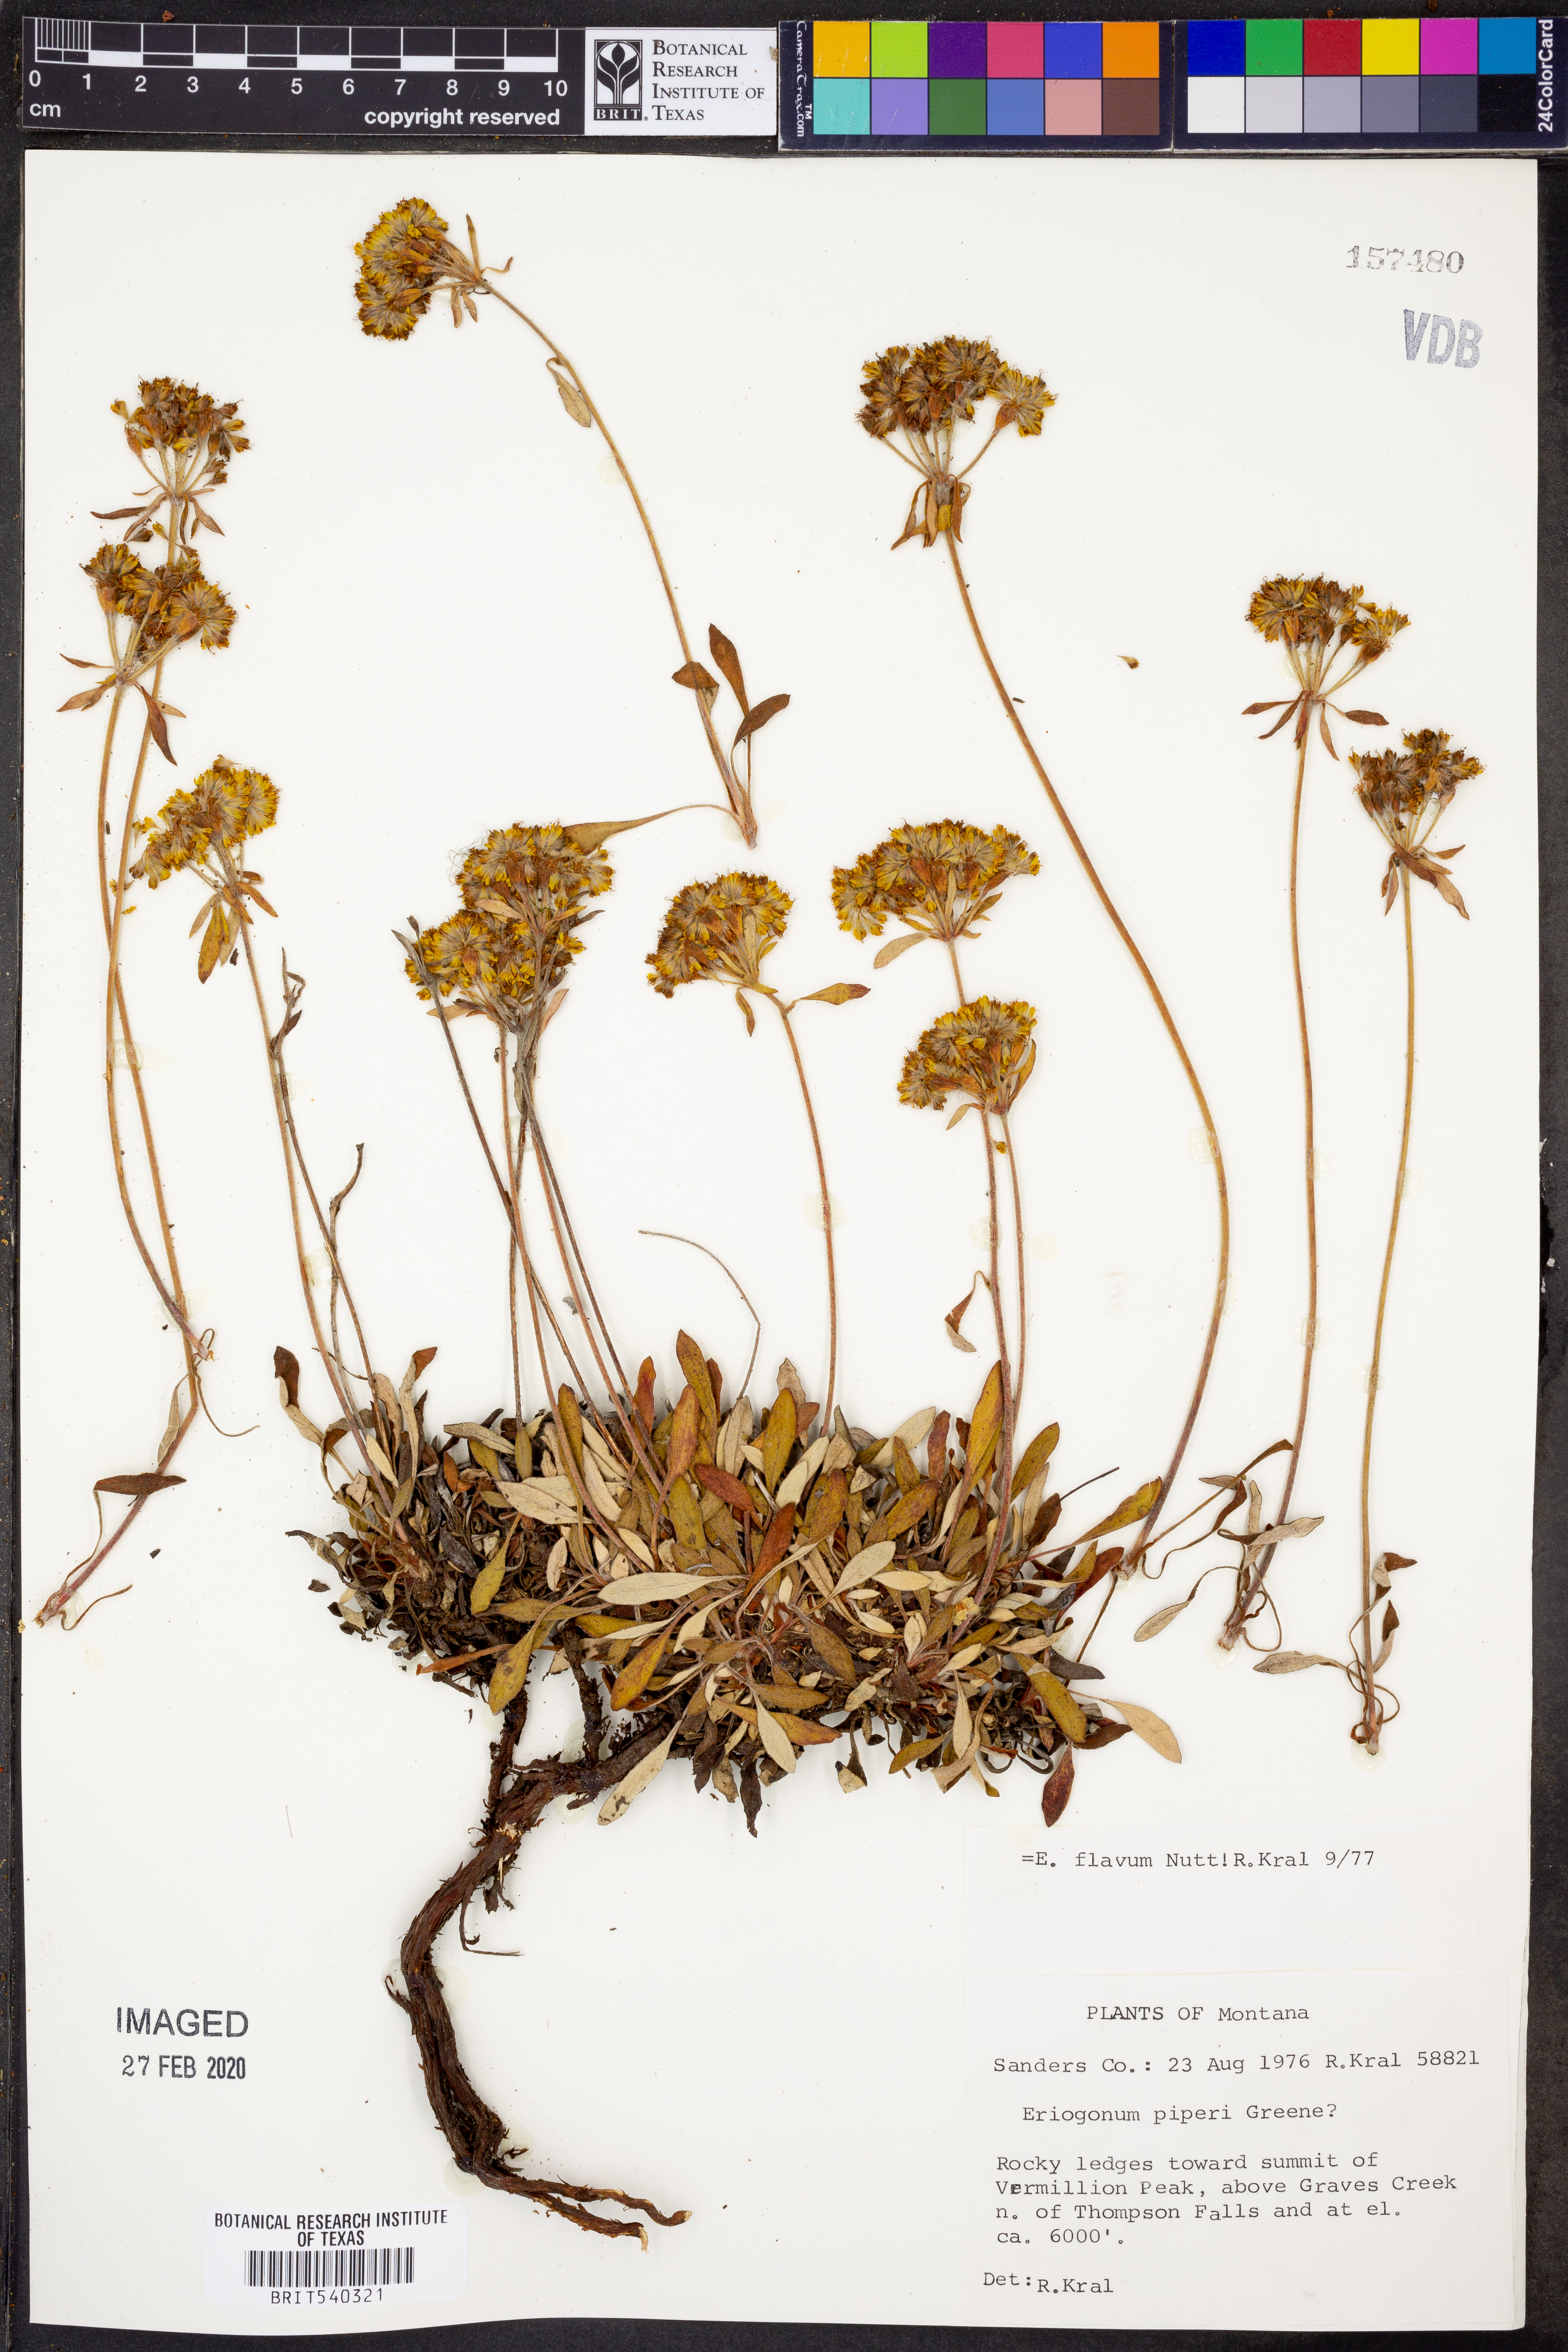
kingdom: Plantae
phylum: Tracheophyta
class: Magnoliopsida
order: Caryophyllales
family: Polygonaceae
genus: Eriogonum
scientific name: Eriogonum flavum
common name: Alpine golden wild buckwheat
